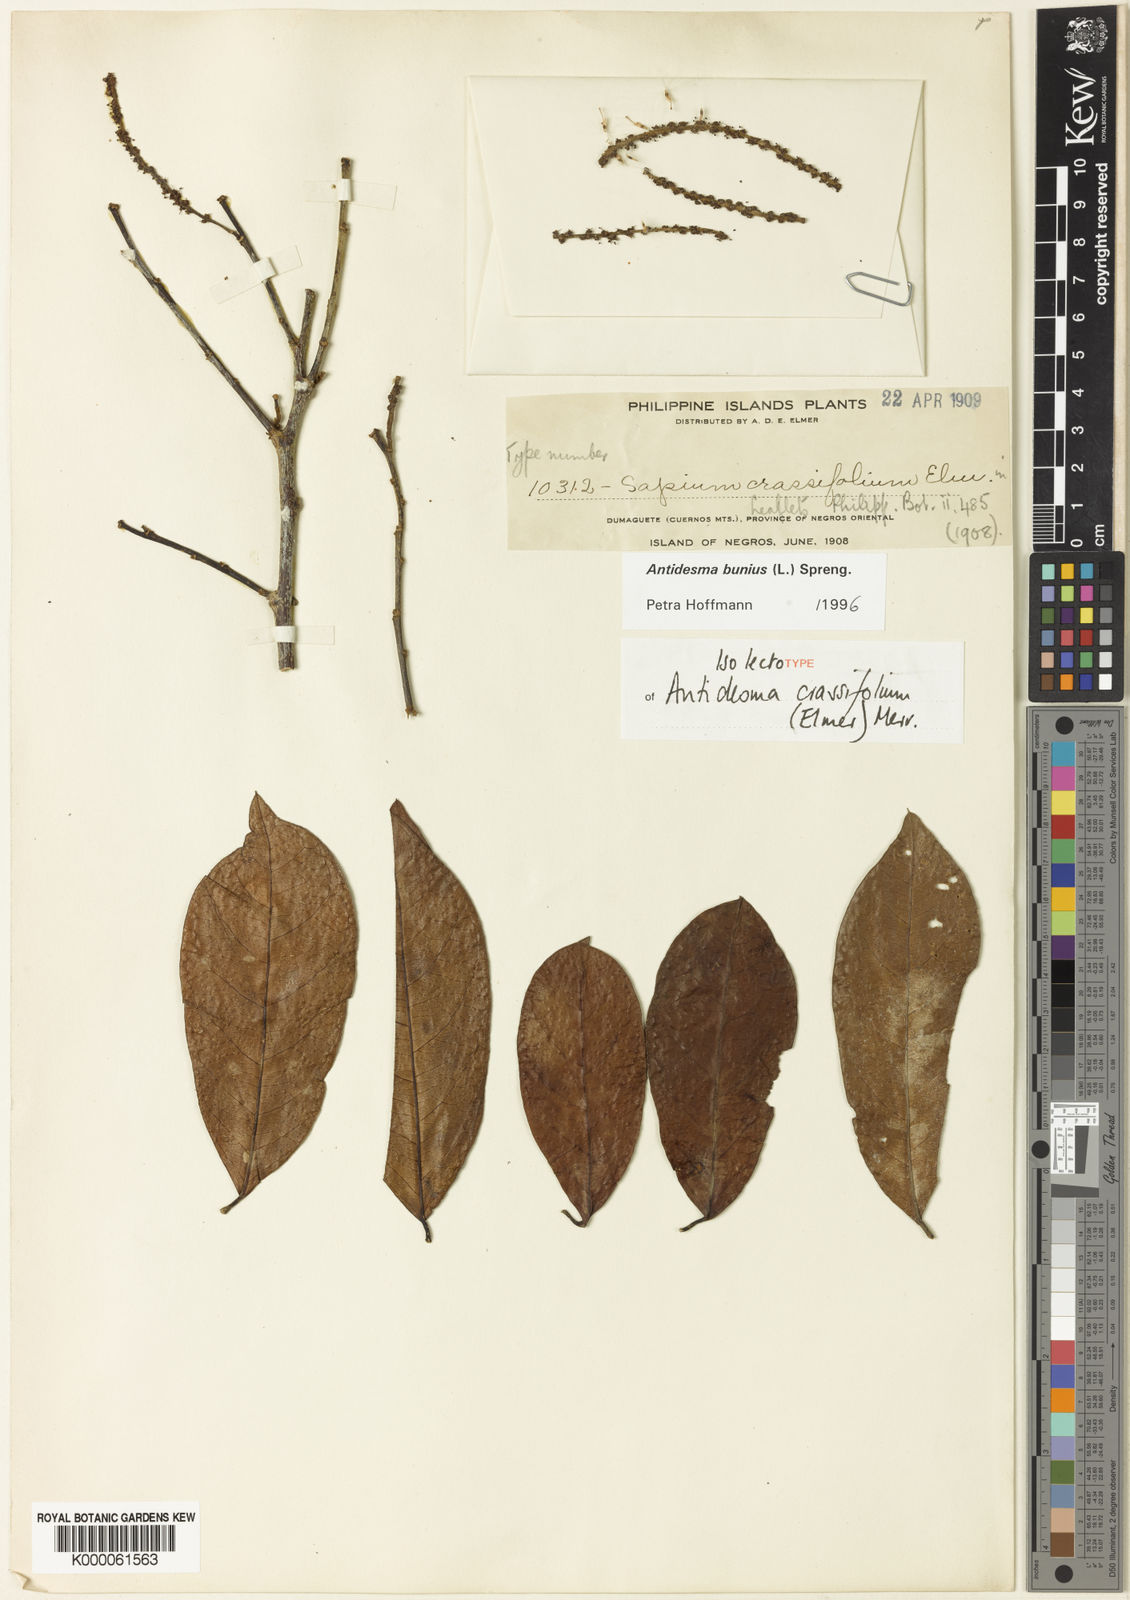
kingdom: Plantae
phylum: Tracheophyta
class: Magnoliopsida
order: Malpighiales
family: Phyllanthaceae
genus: Antidesma
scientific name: Antidesma bunius
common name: Chinese-laurel
